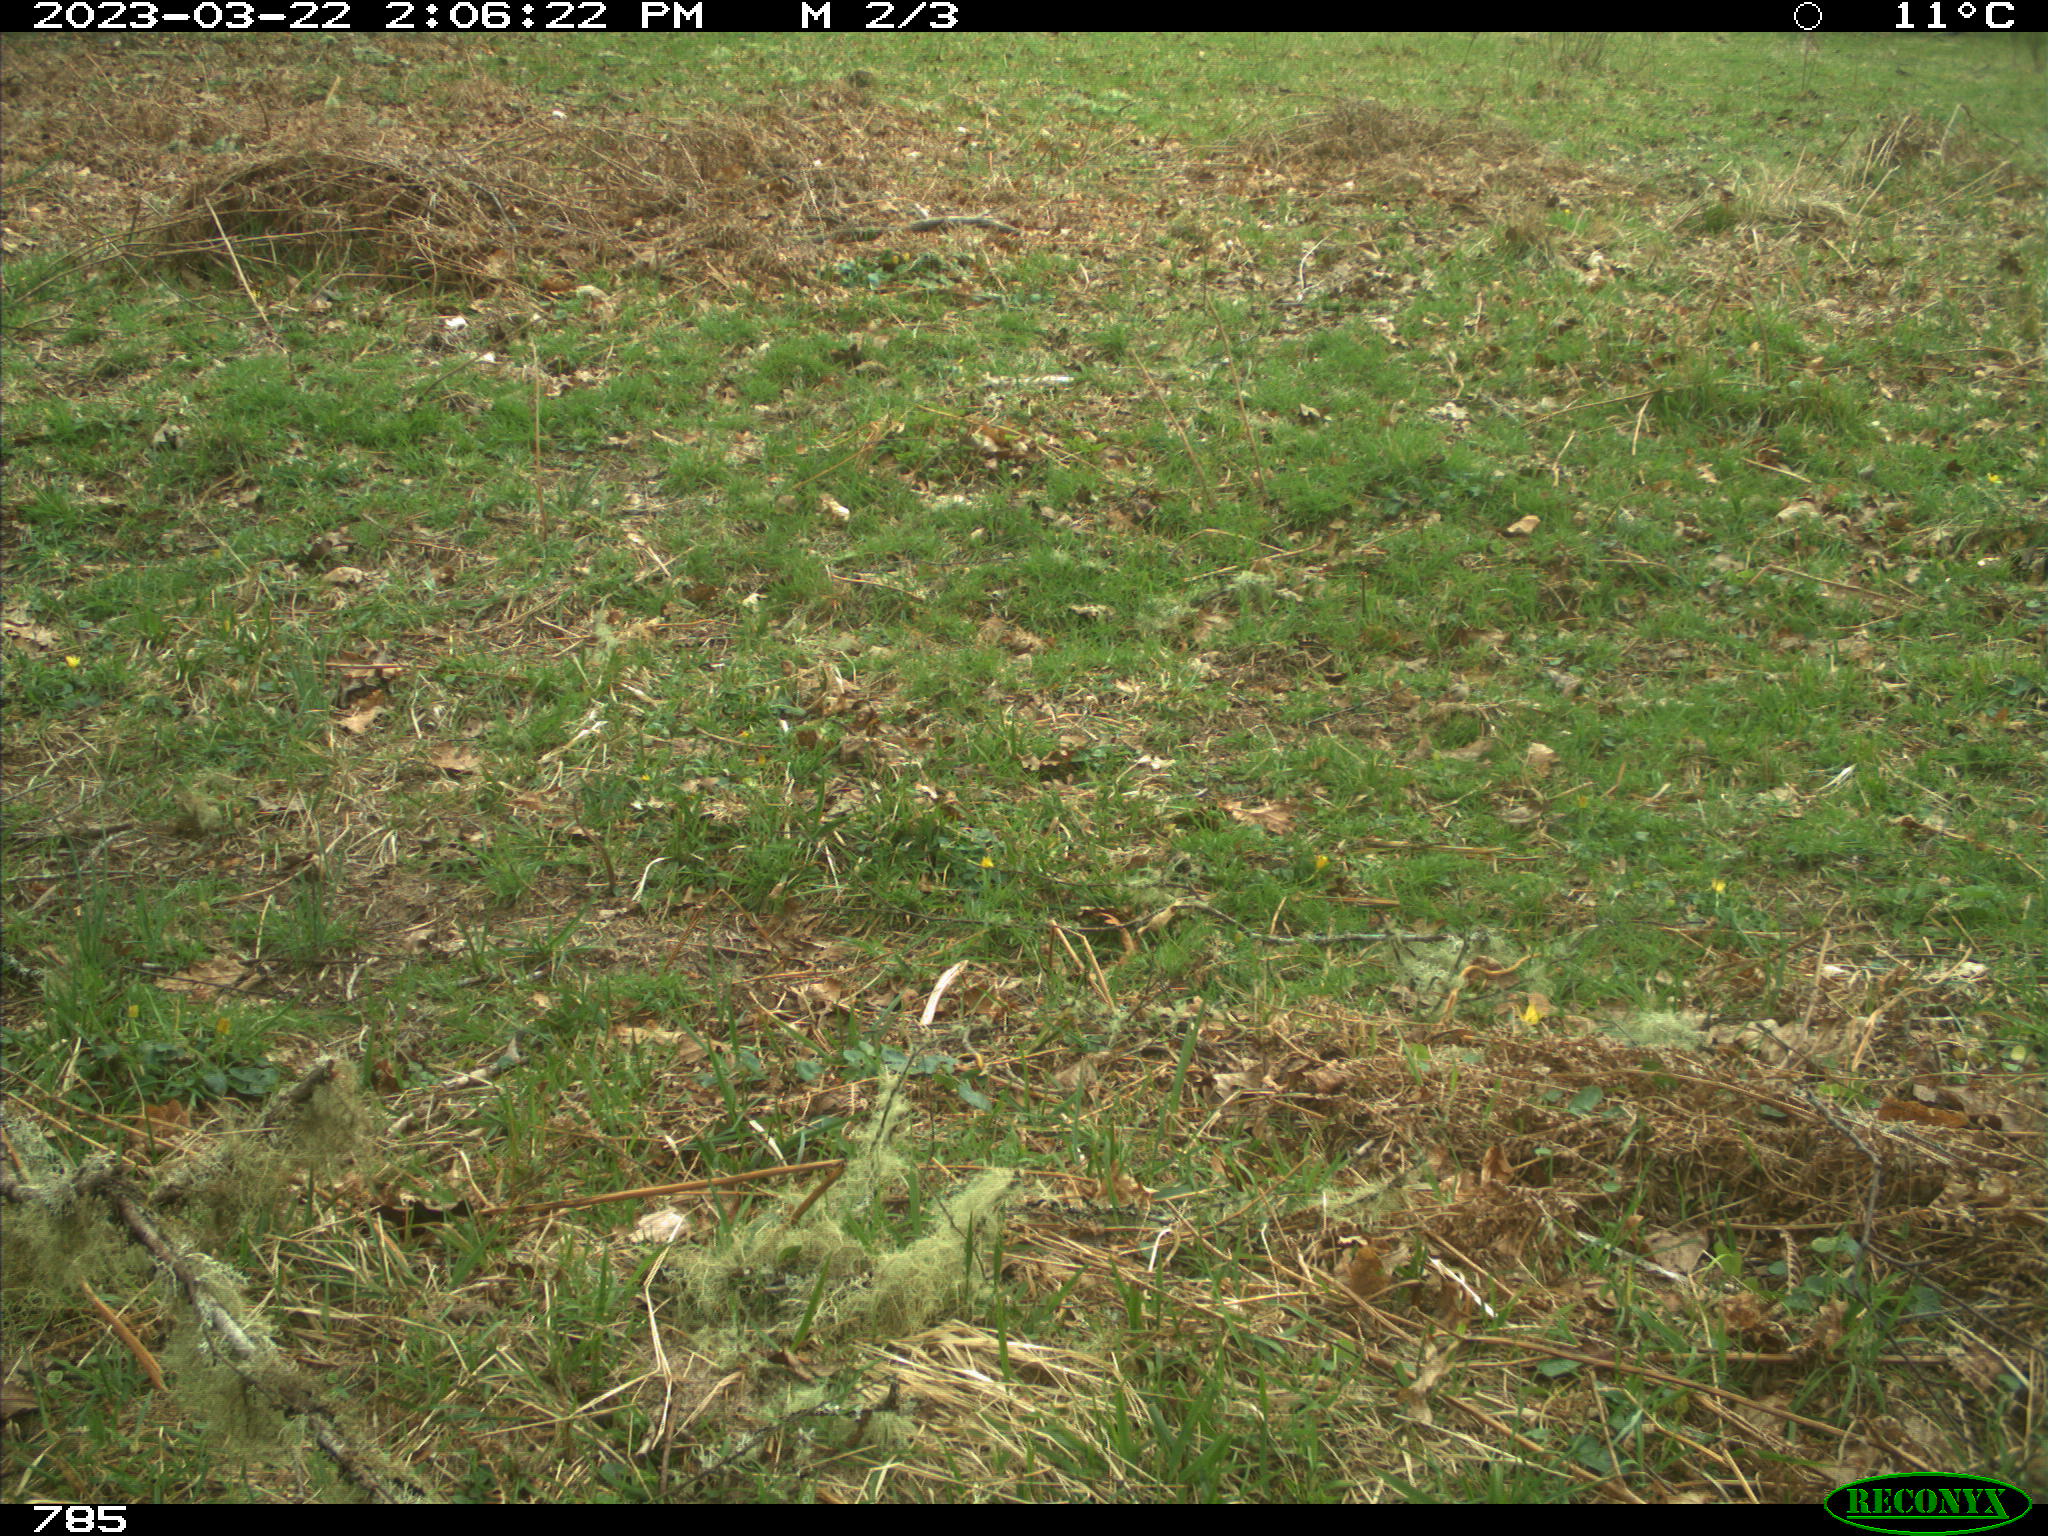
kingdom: Animalia
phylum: Chordata
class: Mammalia
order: Perissodactyla
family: Equidae
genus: Equus
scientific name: Equus caballus
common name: Horse
